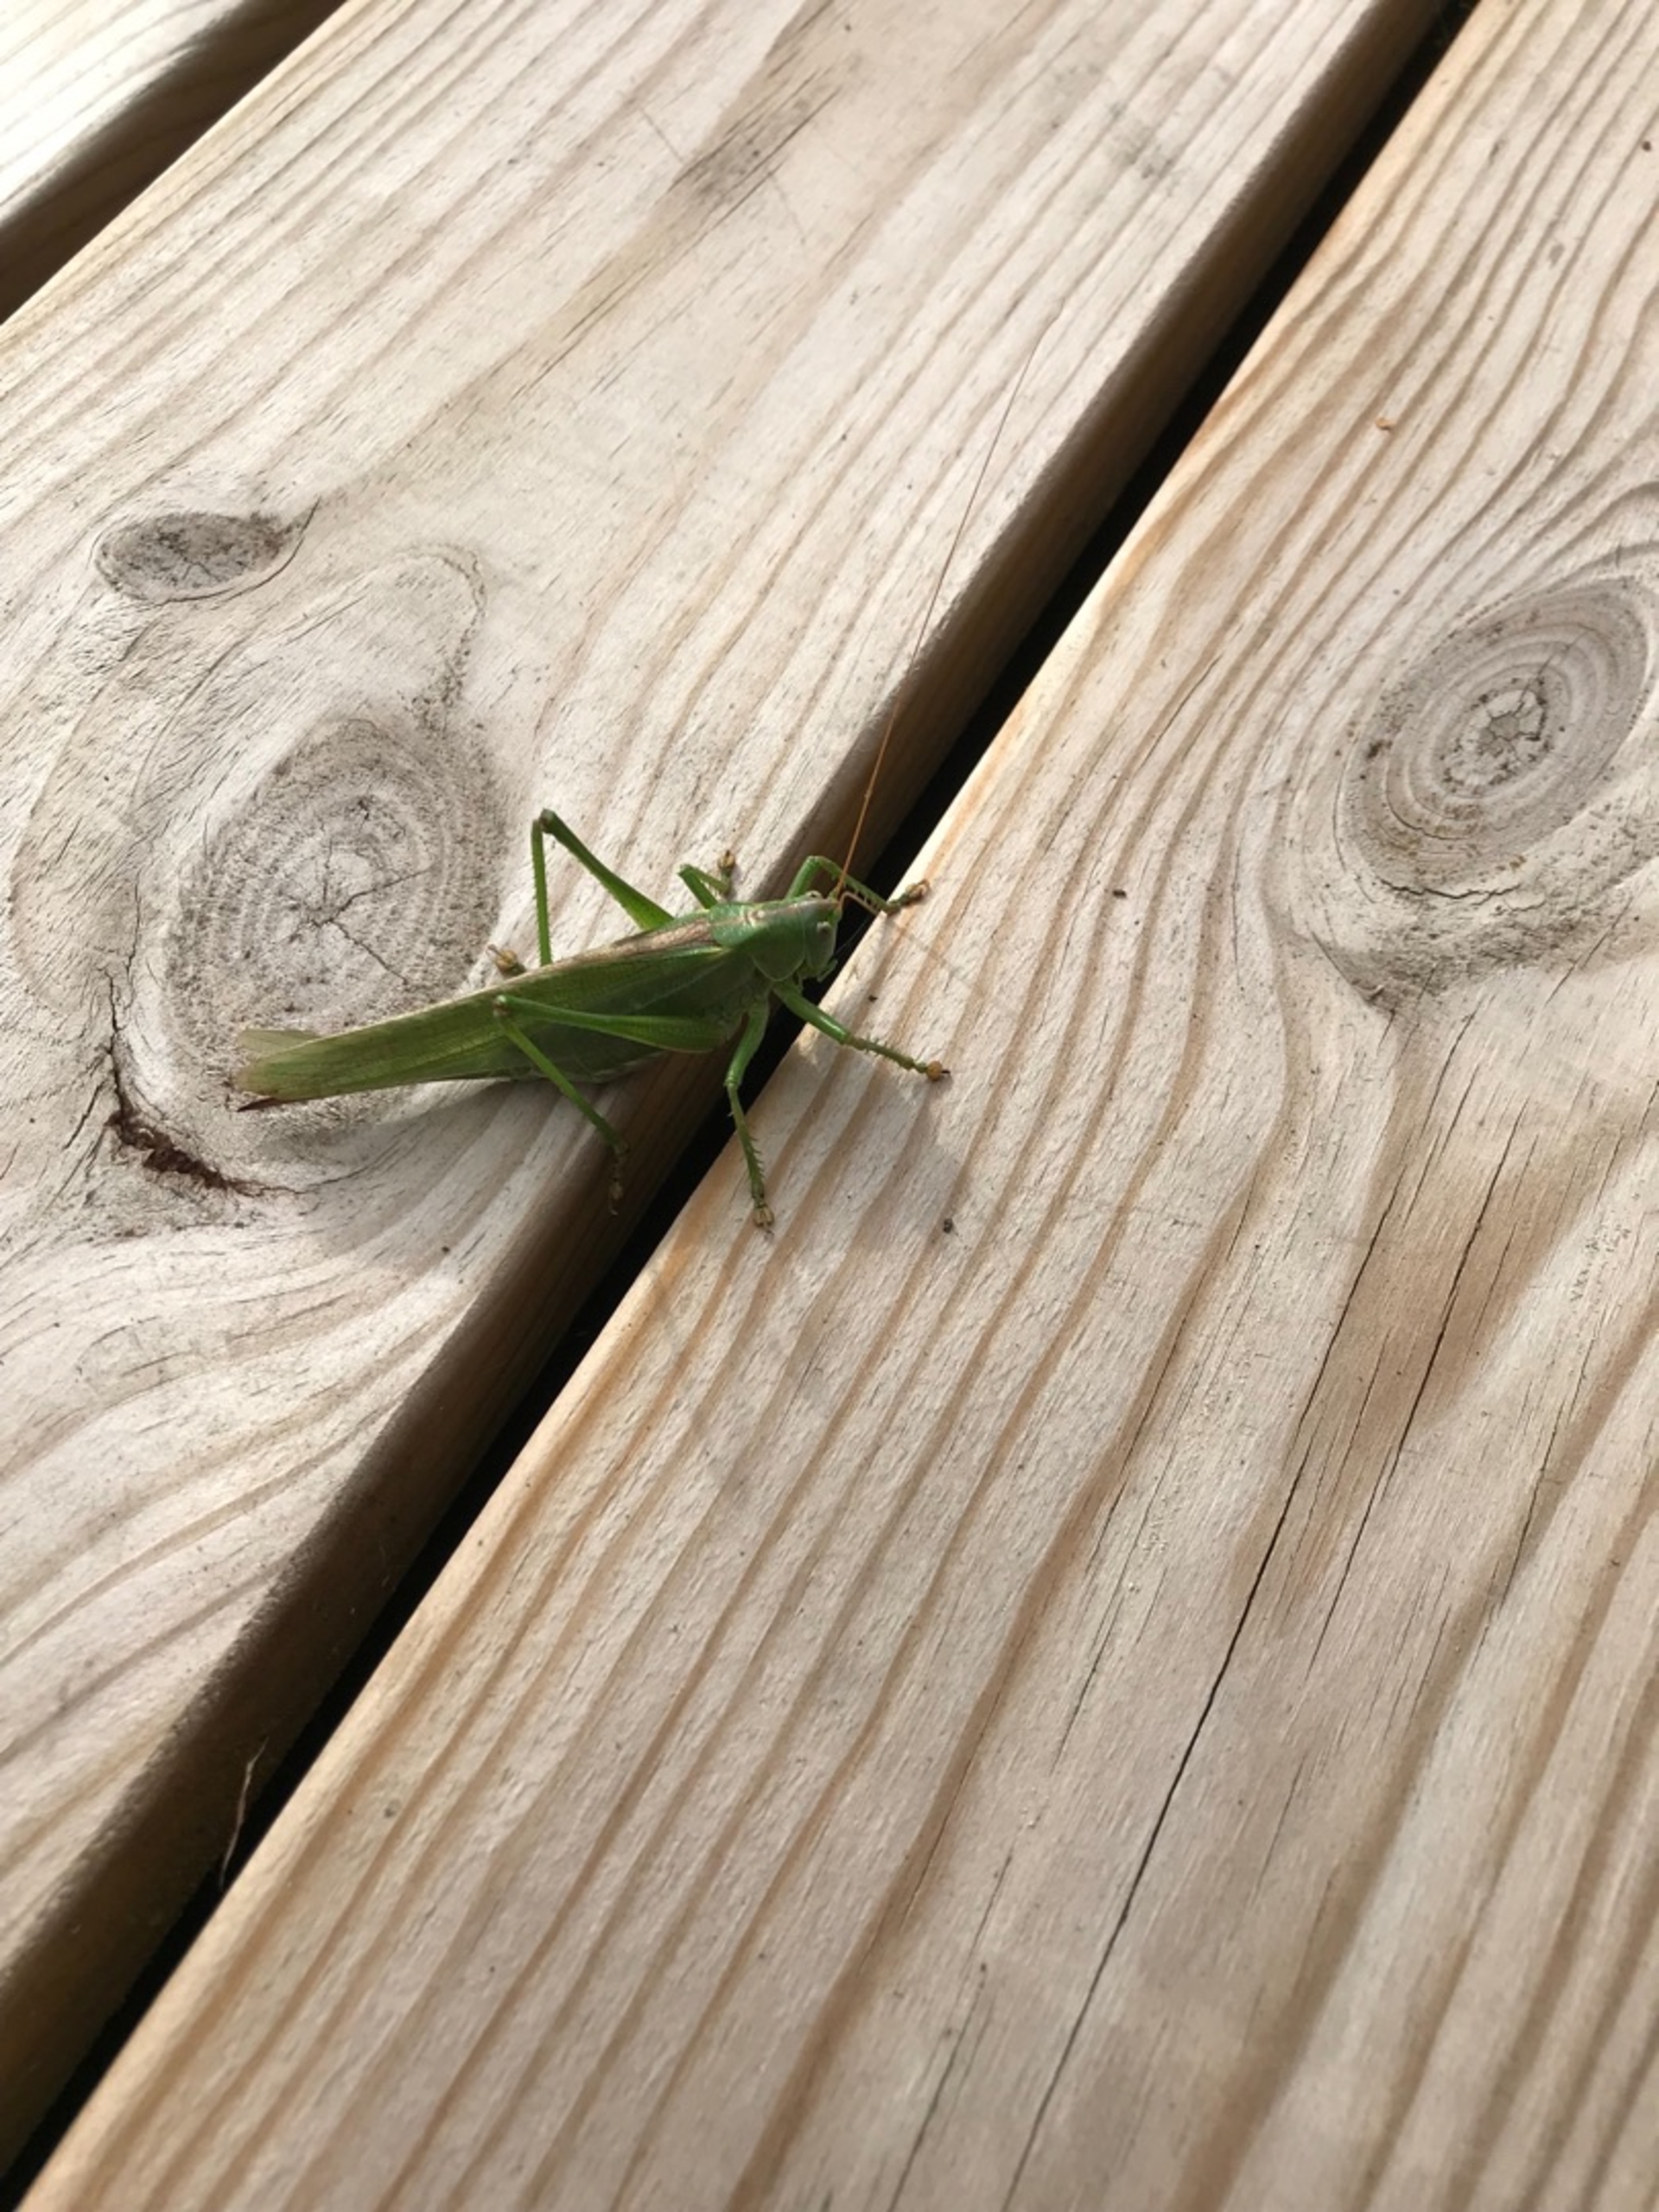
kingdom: Animalia
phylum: Arthropoda
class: Insecta
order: Orthoptera
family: Tettigoniidae
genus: Tettigonia
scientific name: Tettigonia viridissima
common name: Stor grøn løvgræshoppe
